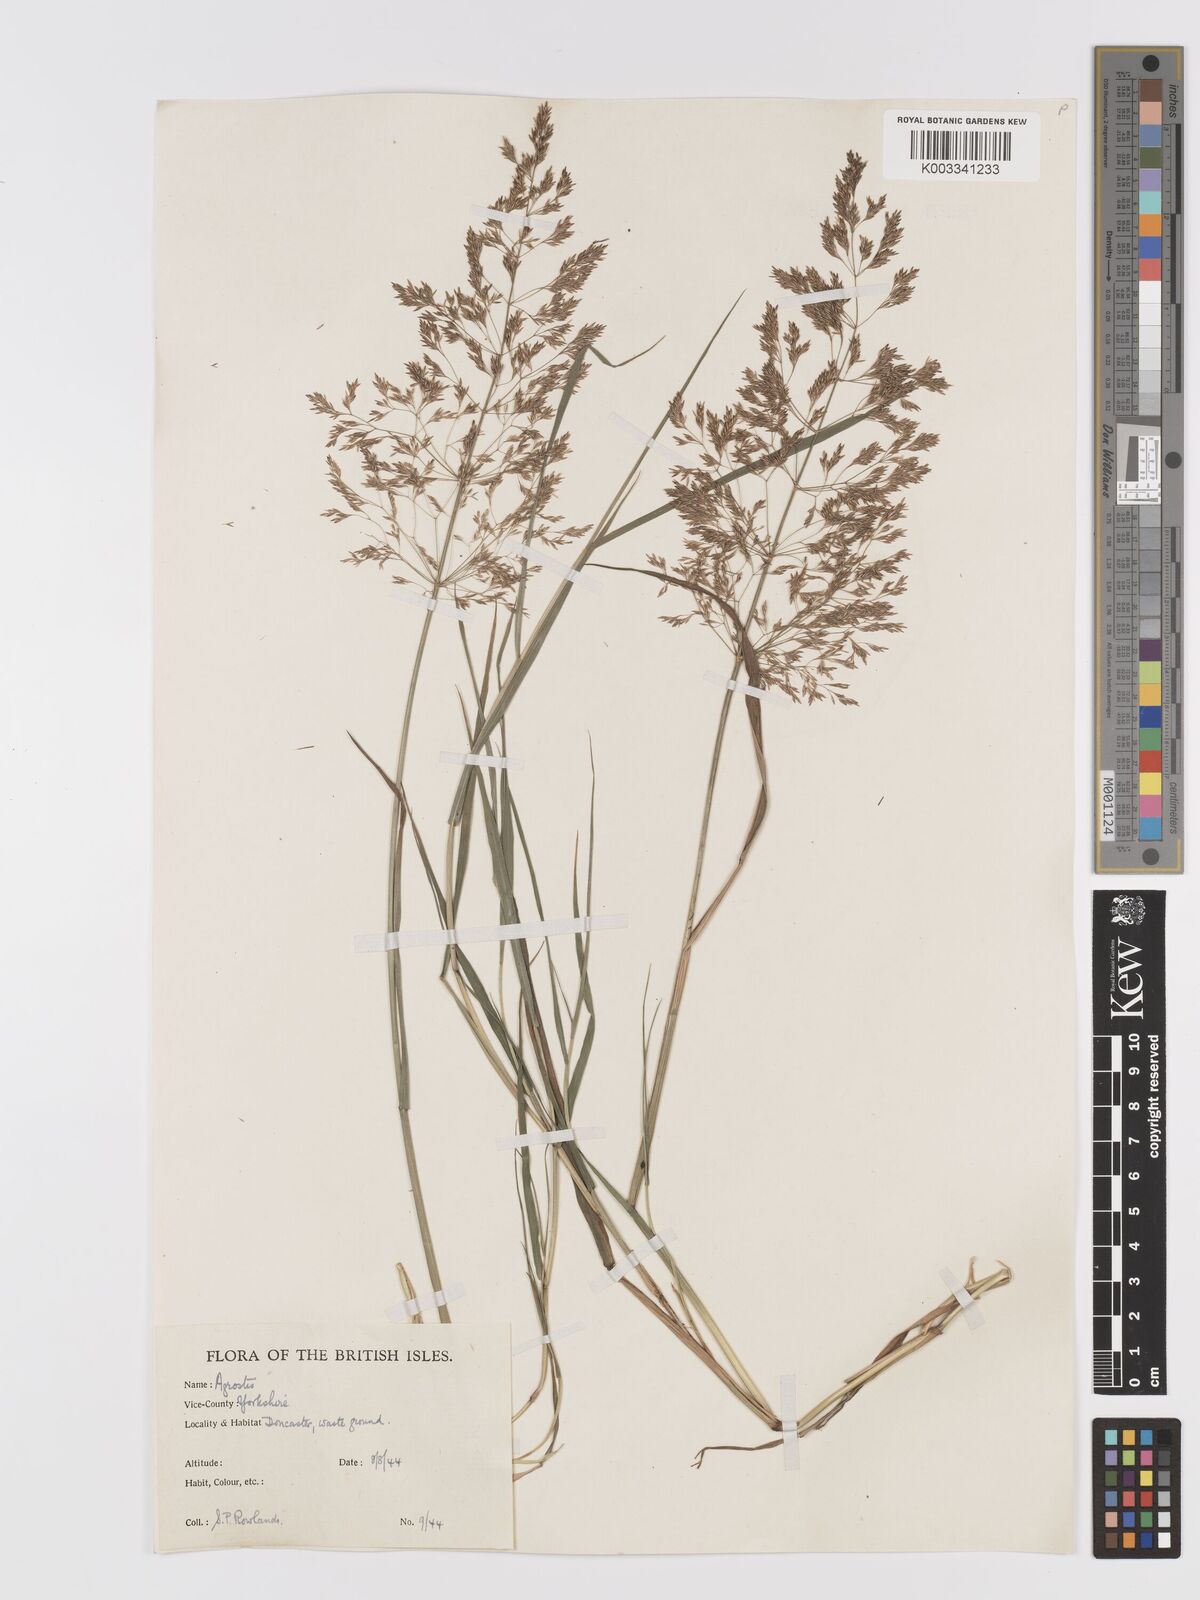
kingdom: Plantae
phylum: Tracheophyta
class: Liliopsida
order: Poales
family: Poaceae
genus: Agrostis
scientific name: Agrostis gigantea
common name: Black bent
